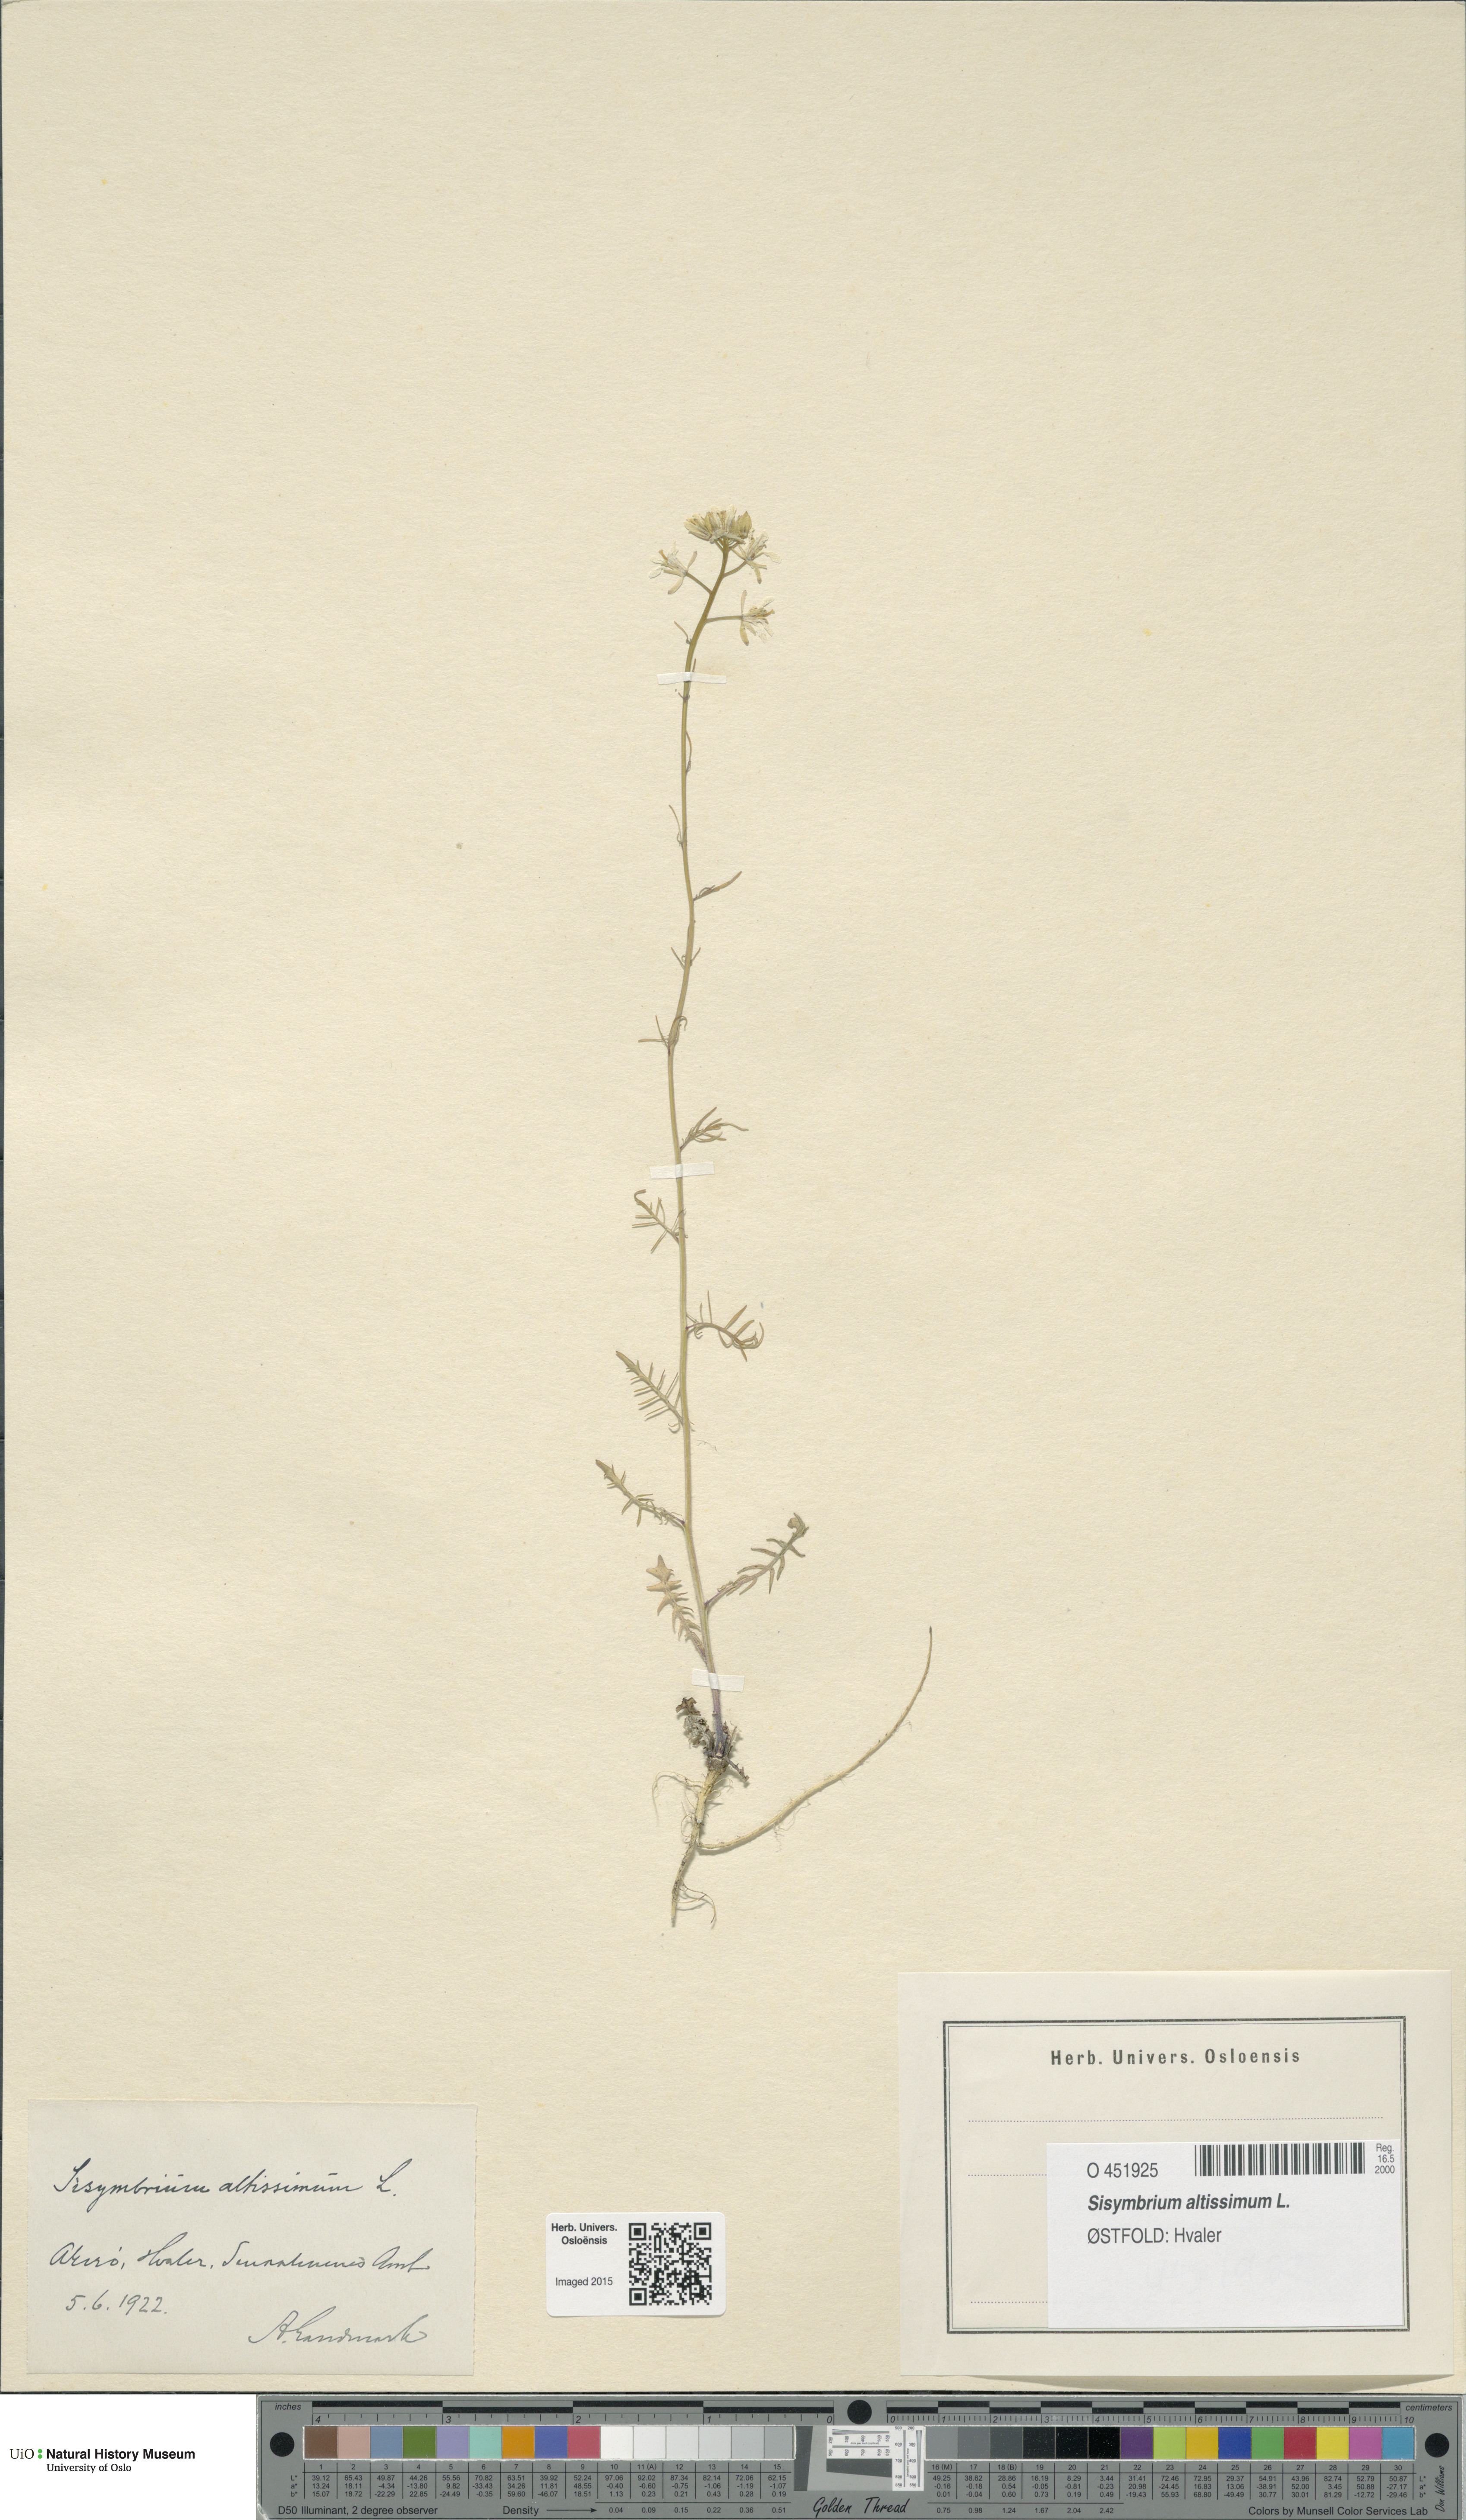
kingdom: Plantae
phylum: Tracheophyta
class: Magnoliopsida
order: Brassicales
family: Brassicaceae
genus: Sisymbrium
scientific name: Sisymbrium altissimum
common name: Tall rocket
